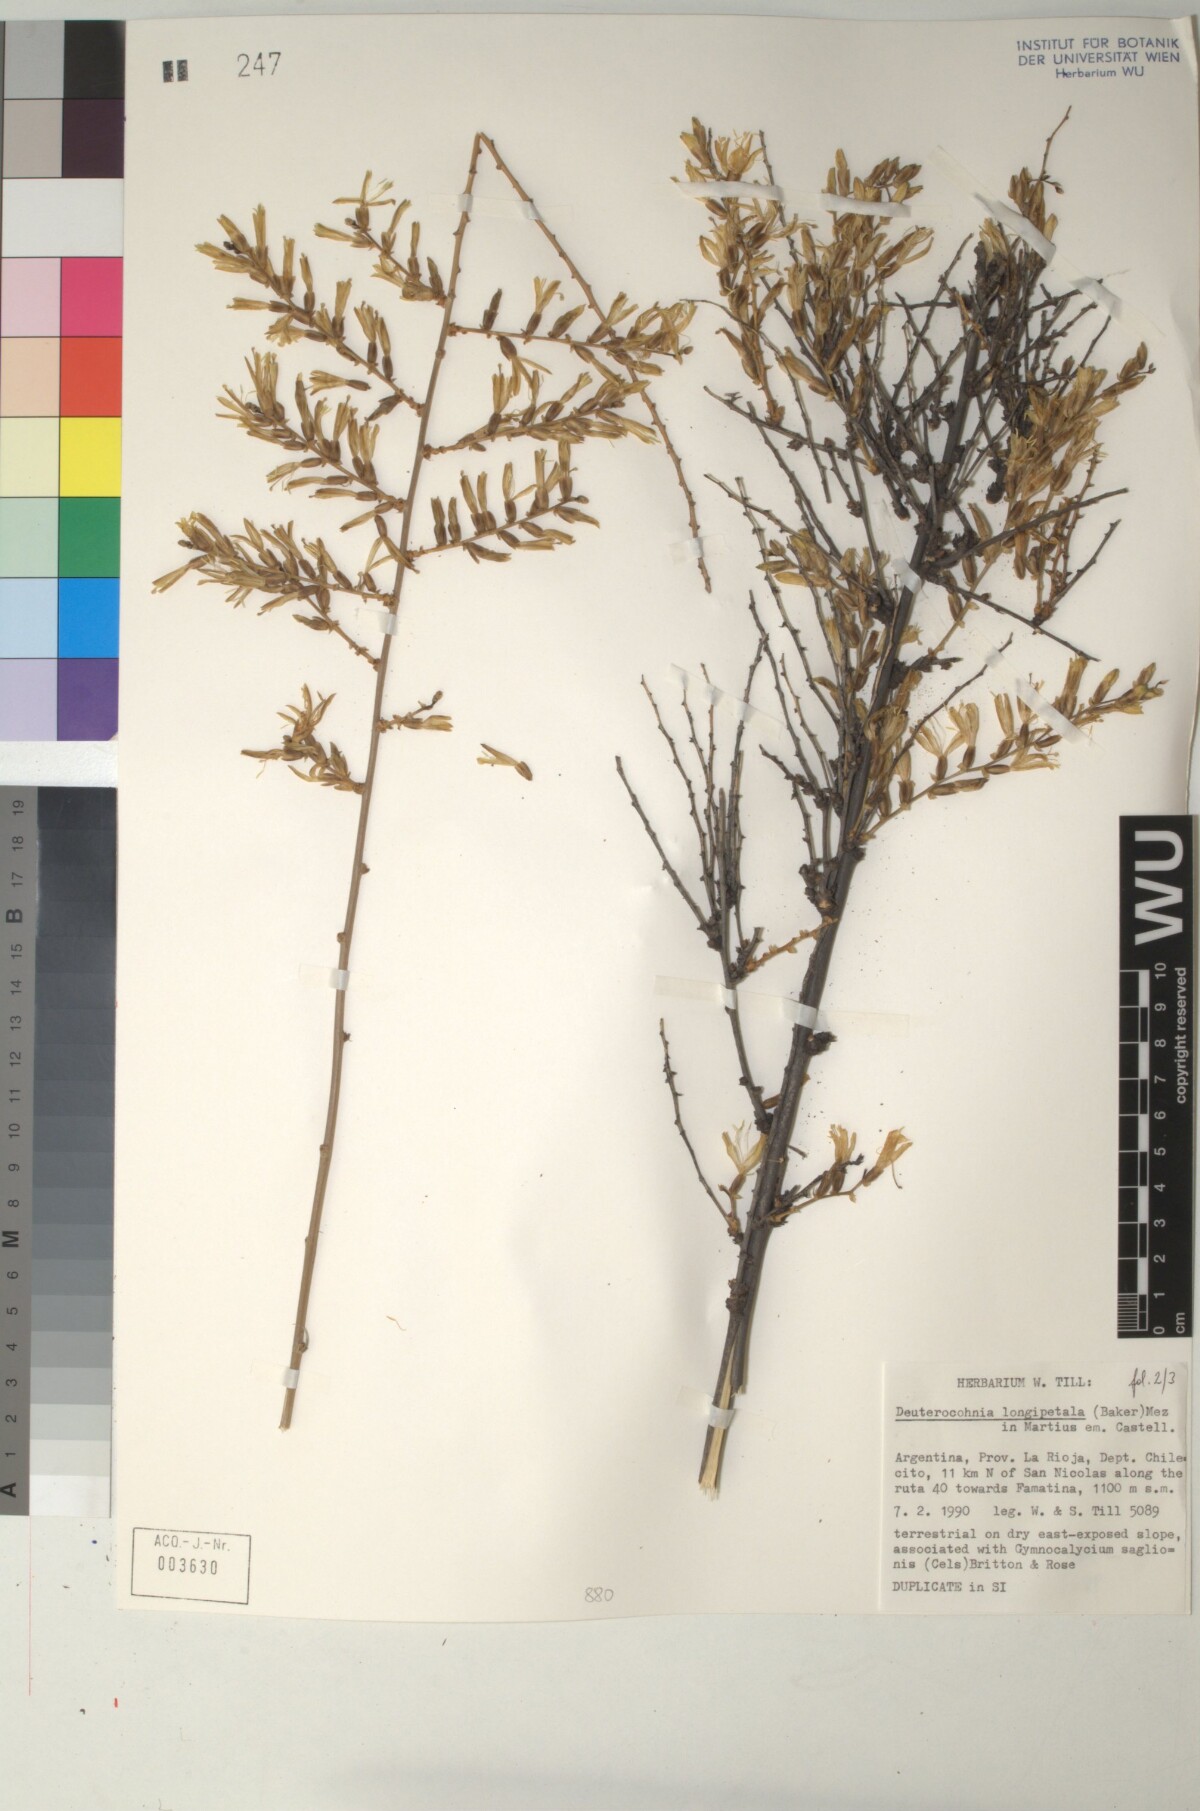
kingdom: Plantae
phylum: Tracheophyta
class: Liliopsida
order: Poales
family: Bromeliaceae
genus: Deuterocohnia
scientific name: Deuterocohnia longipetala
